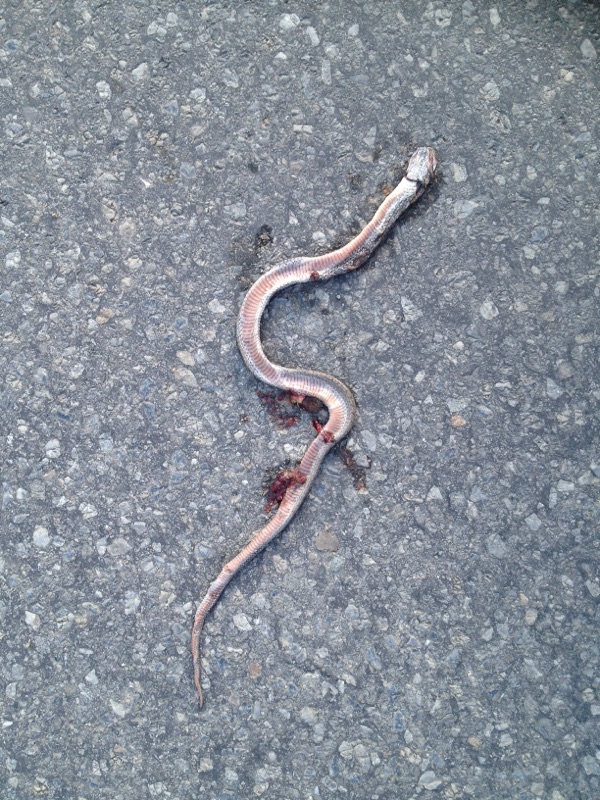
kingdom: Animalia
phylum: Chordata
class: Squamata
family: Colubridae
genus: Coronella
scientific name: Coronella austriaca
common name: Smooth snake
